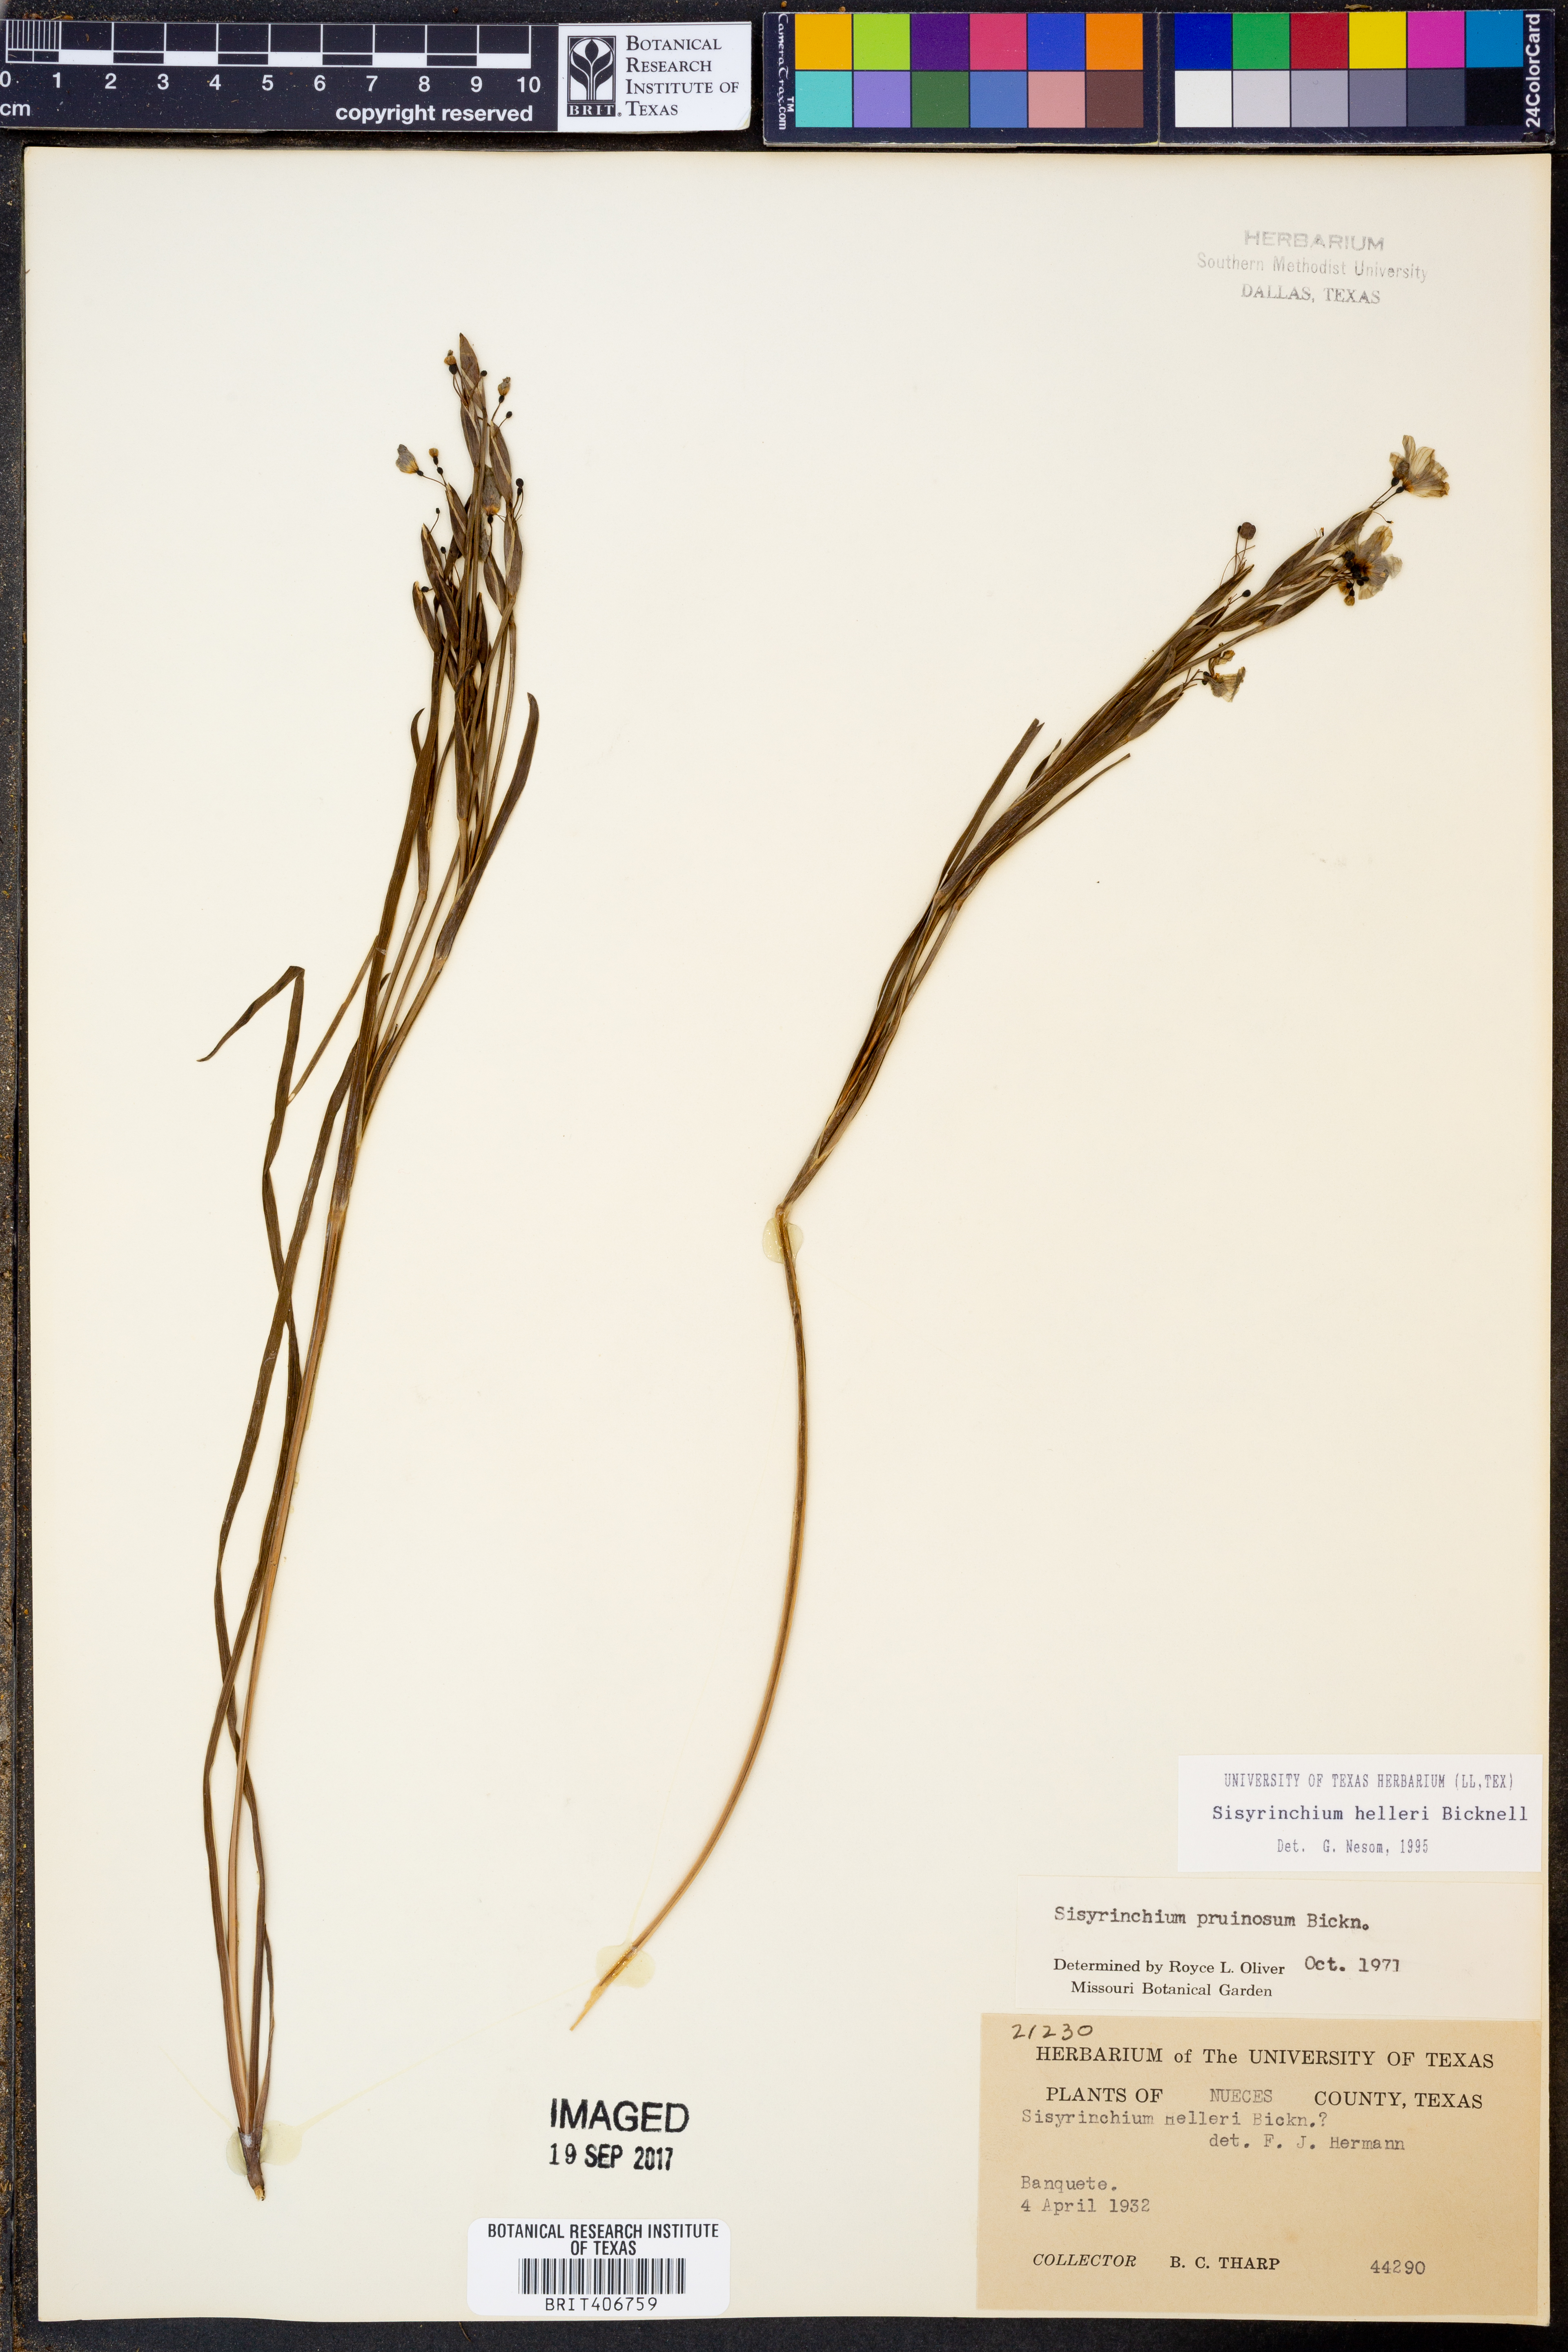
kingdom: Plantae
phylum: Tracheophyta
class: Liliopsida
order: Asparagales
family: Iridaceae
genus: Sisyrinchium
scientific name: Sisyrinchium pruinosum
